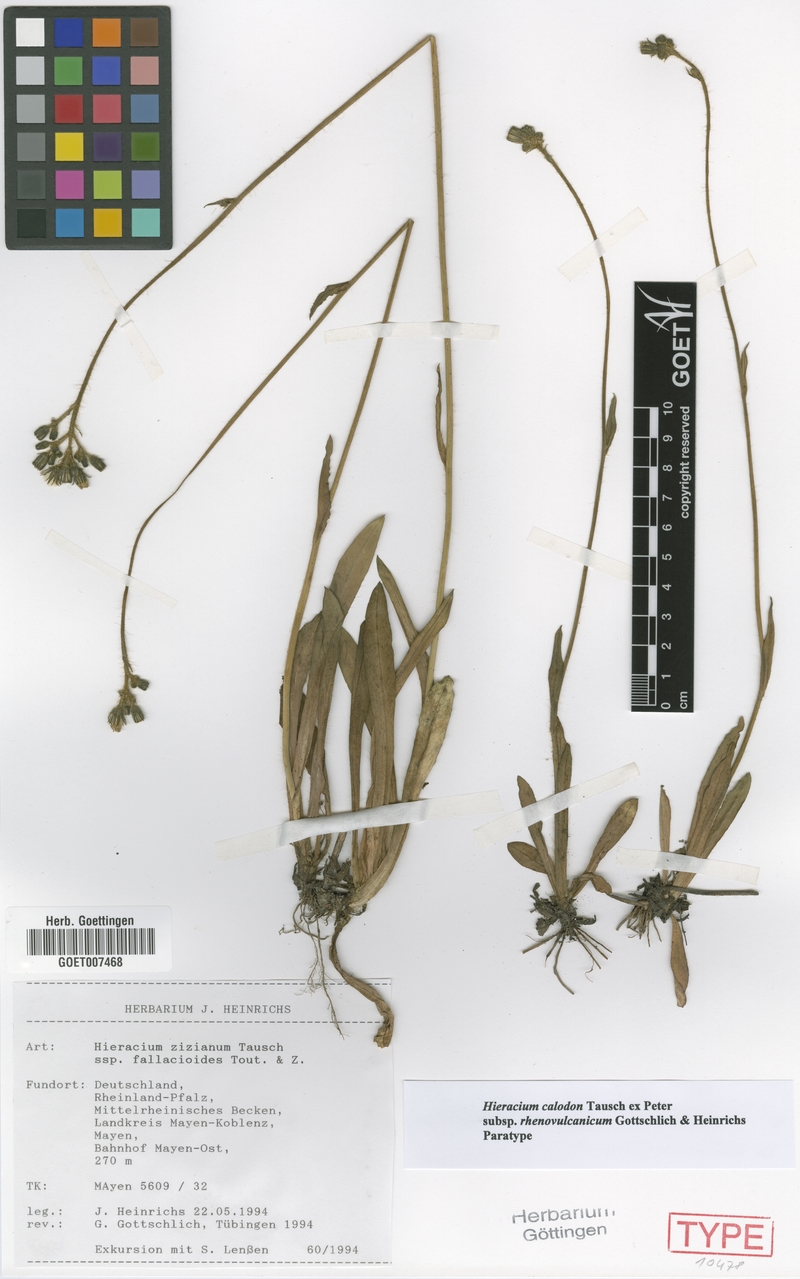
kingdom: Plantae
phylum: Tracheophyta
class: Magnoliopsida
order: Asterales
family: Asteraceae
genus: Pilosella
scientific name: Pilosella calodon
